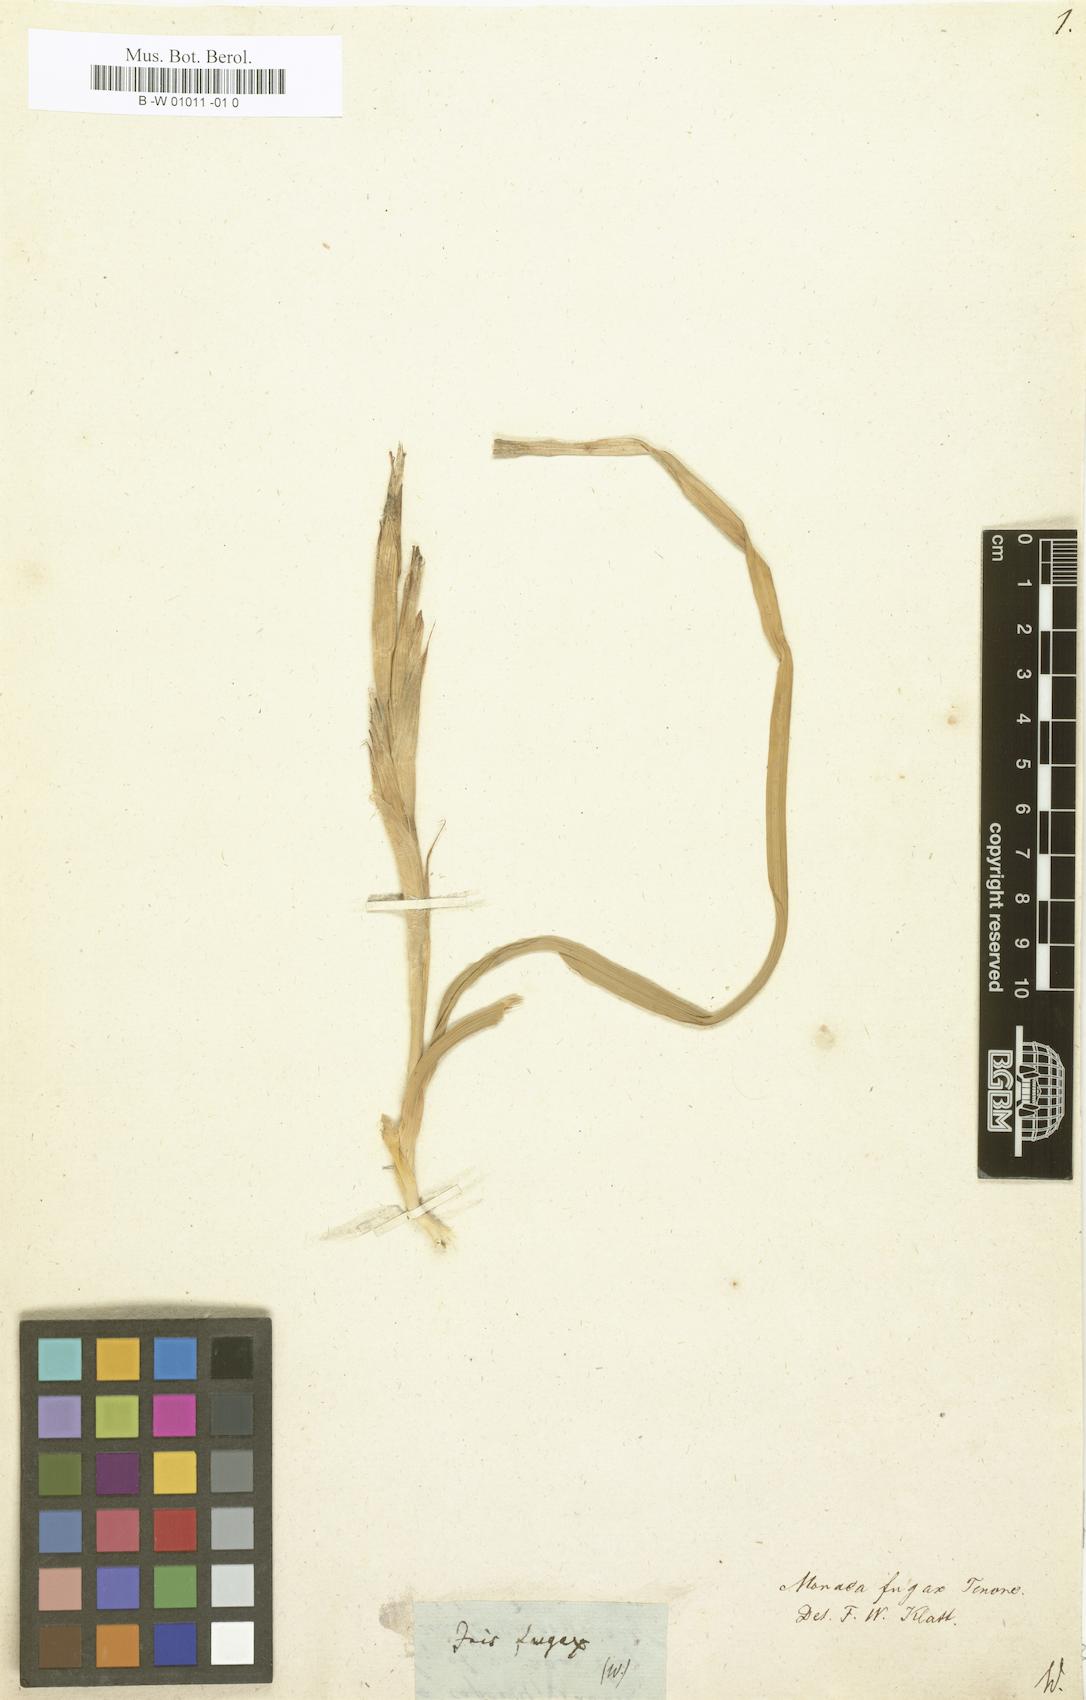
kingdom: Plantae
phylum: Tracheophyta
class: Liliopsida
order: Asparagales
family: Iridaceae
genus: Moraea
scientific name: Moraea
